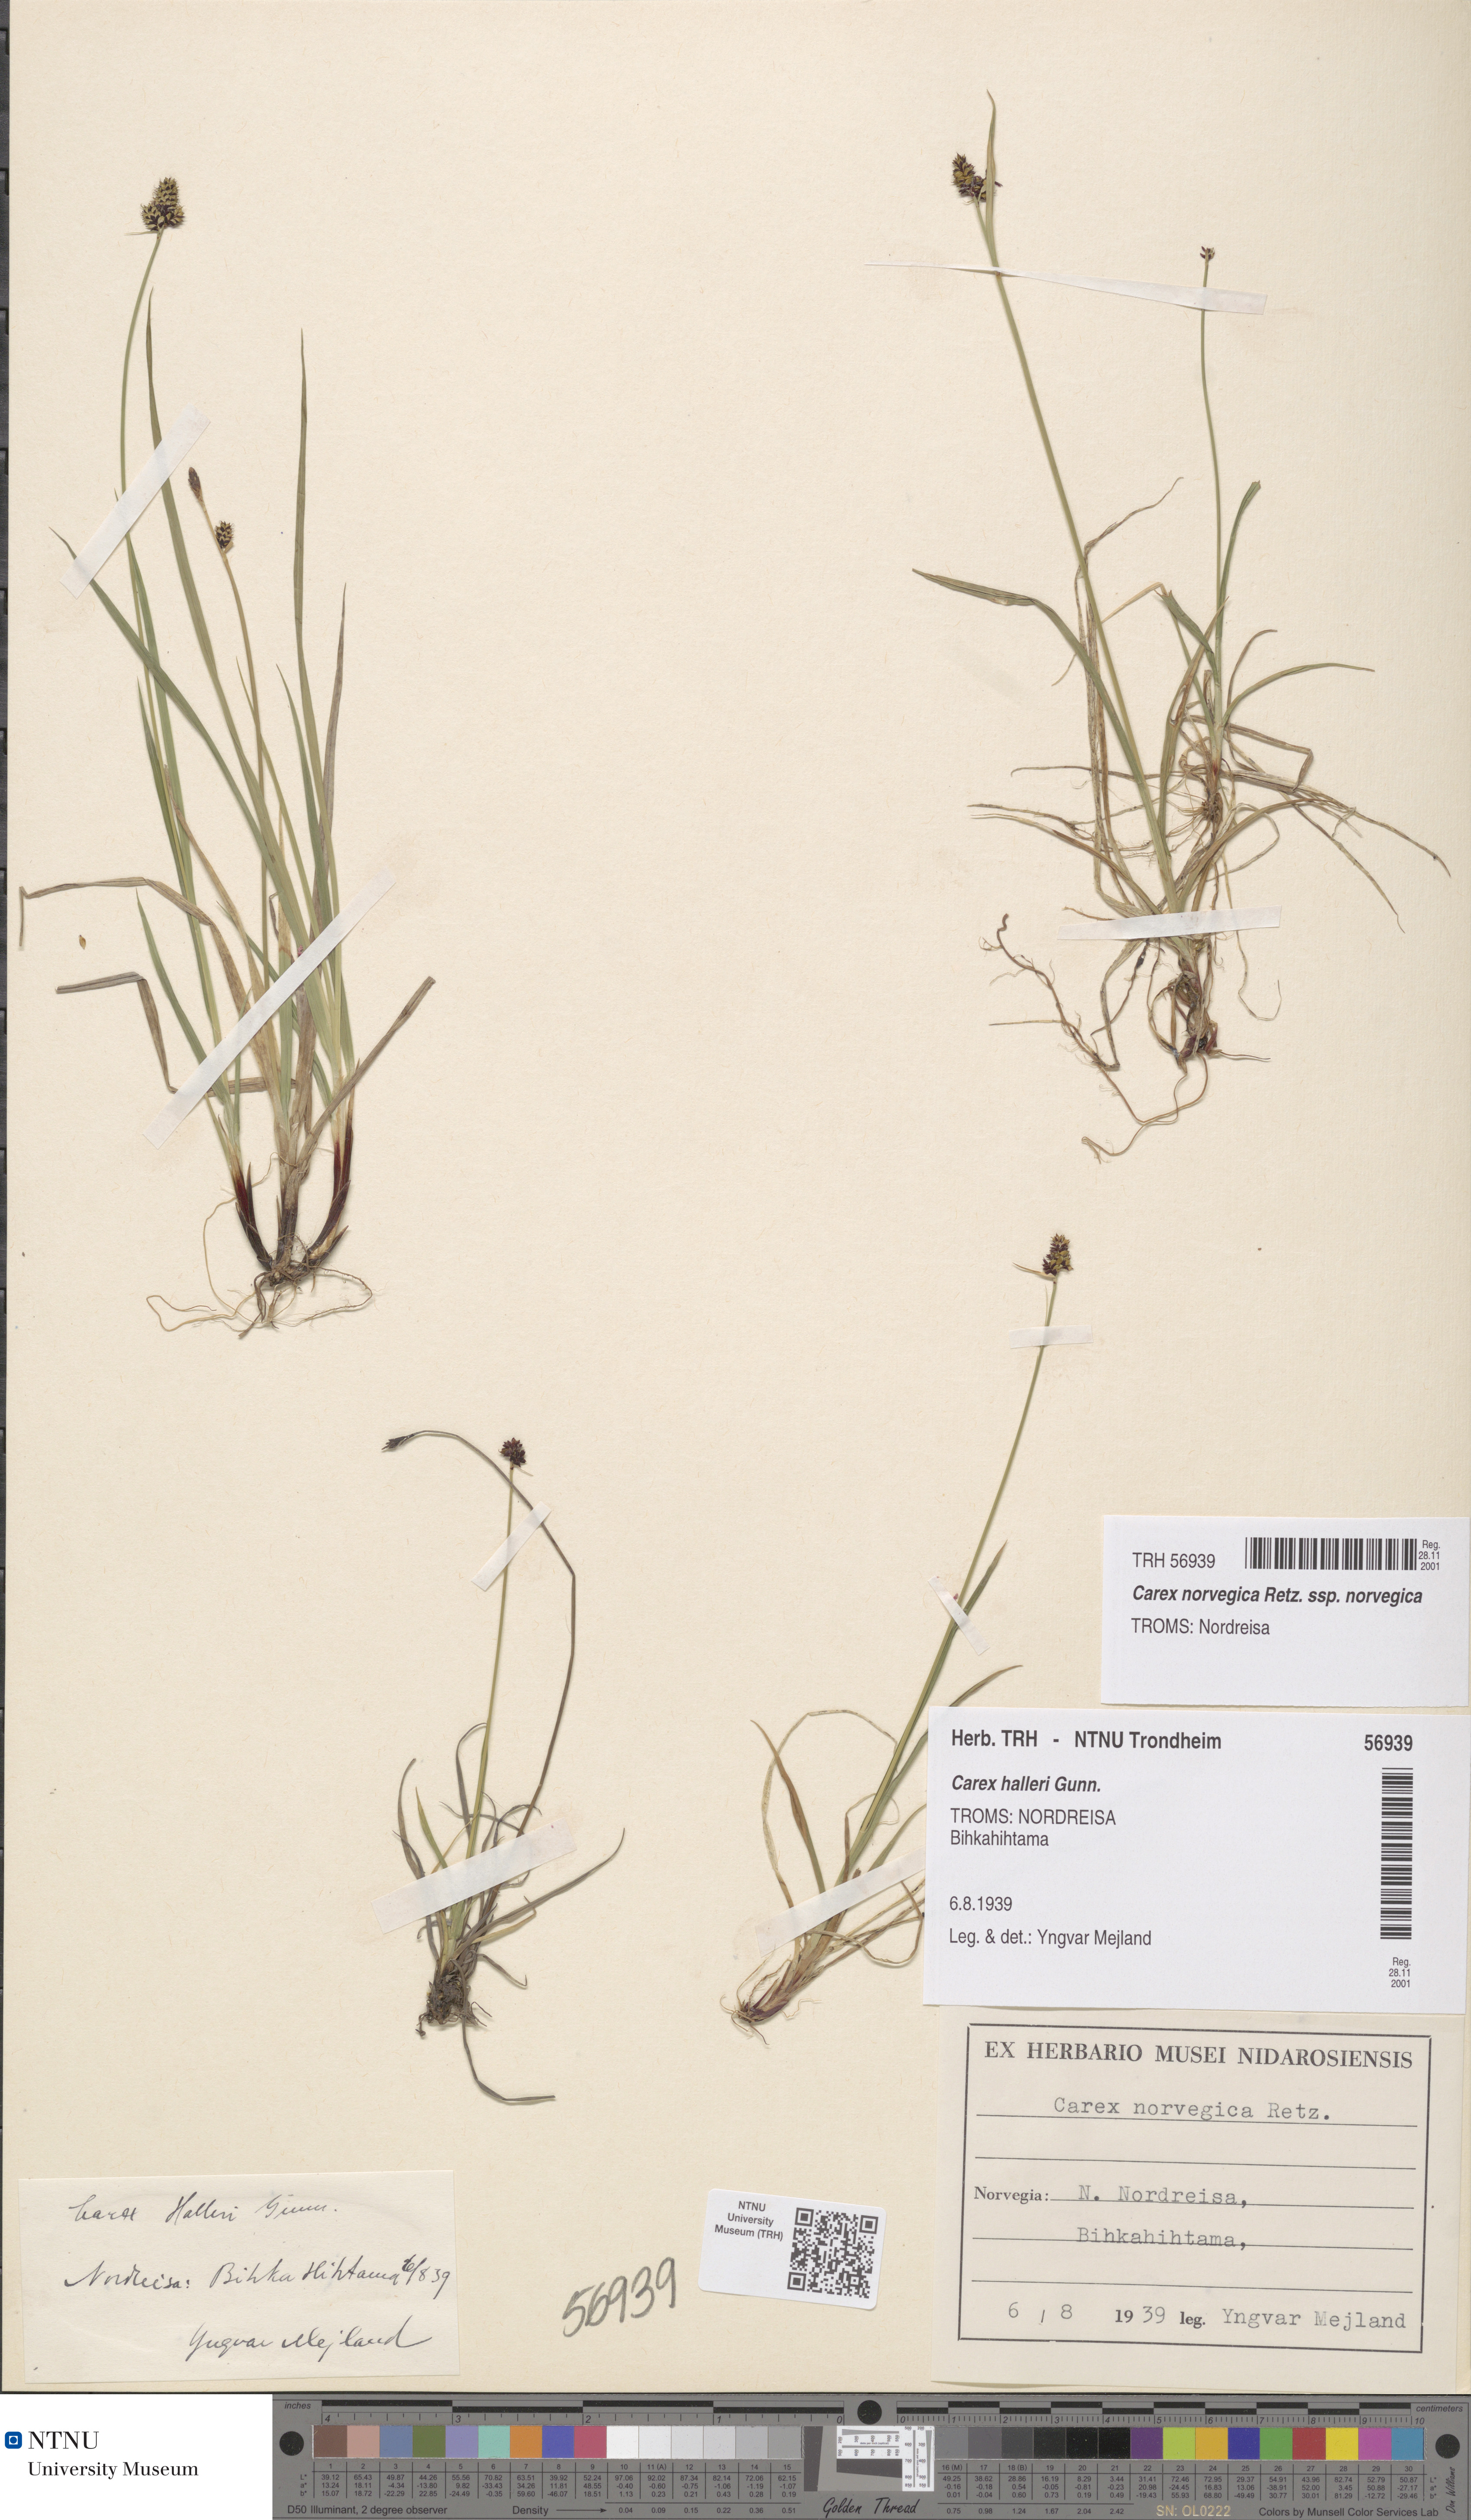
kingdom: Plantae
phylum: Tracheophyta
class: Liliopsida
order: Poales
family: Cyperaceae
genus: Carex
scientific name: Carex norvegica
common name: Close-headed alpine-sedge
